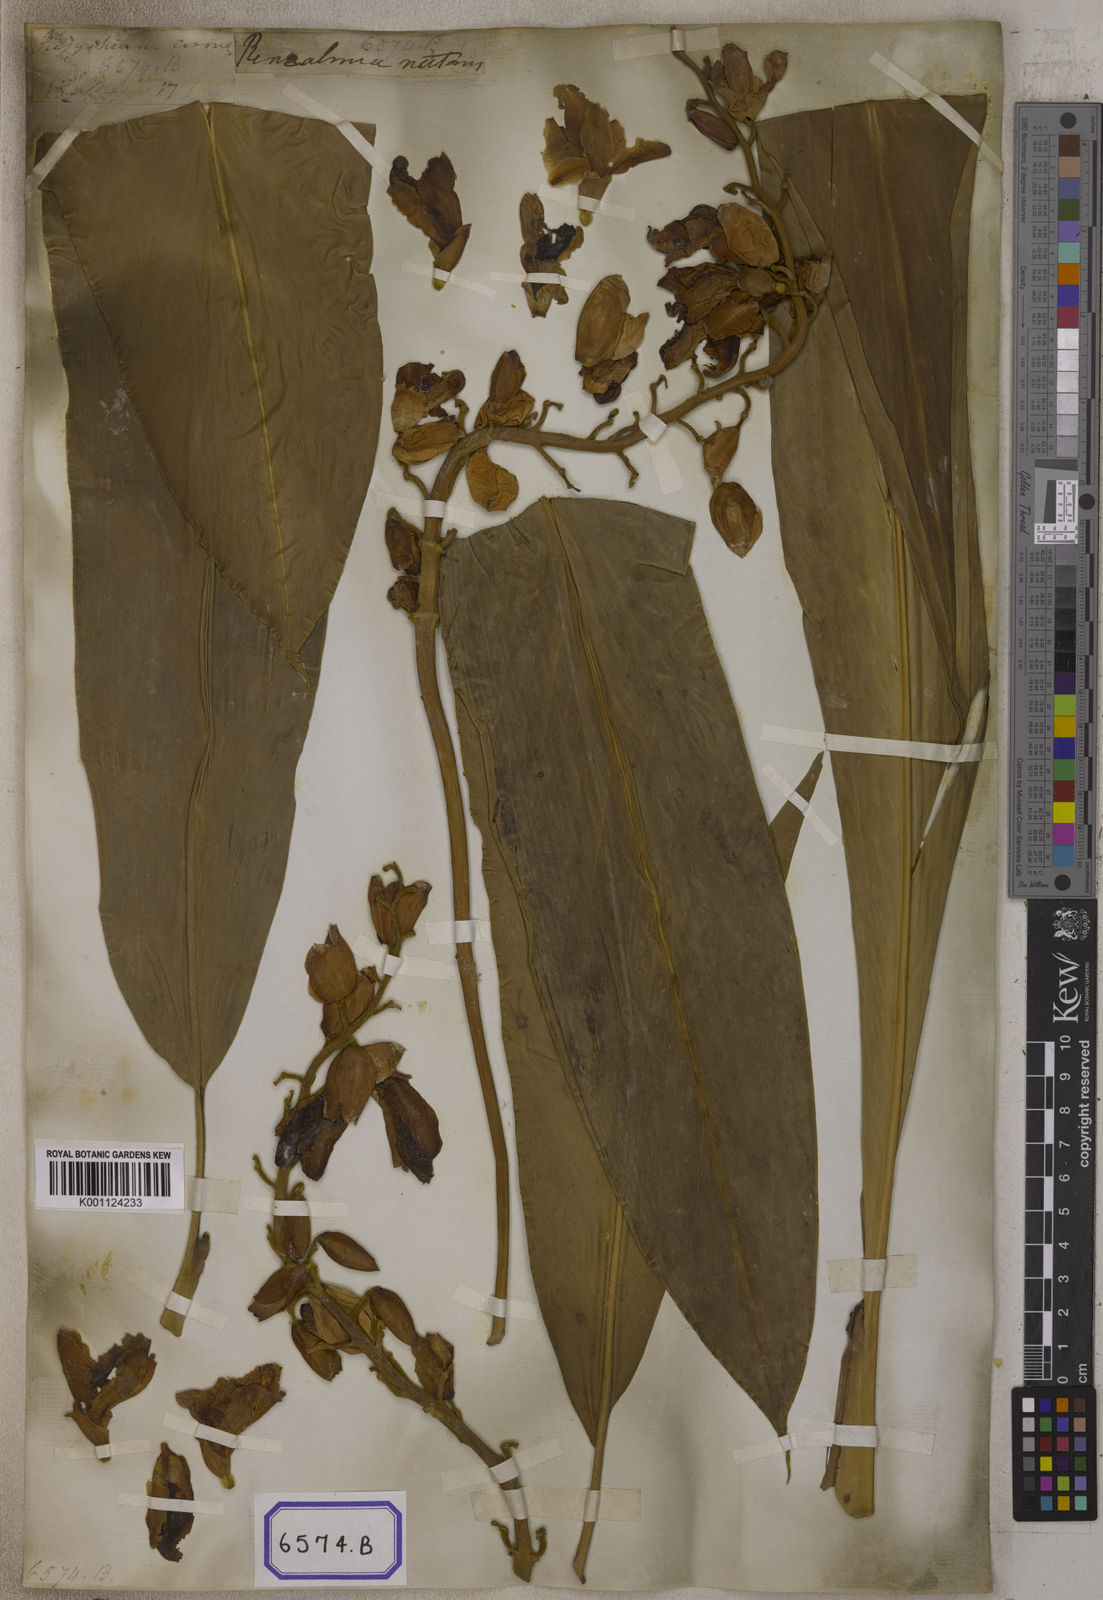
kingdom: Plantae
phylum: Tracheophyta
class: Liliopsida
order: Zingiberales
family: Zingiberaceae
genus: Alpinia
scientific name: Alpinia nutans
